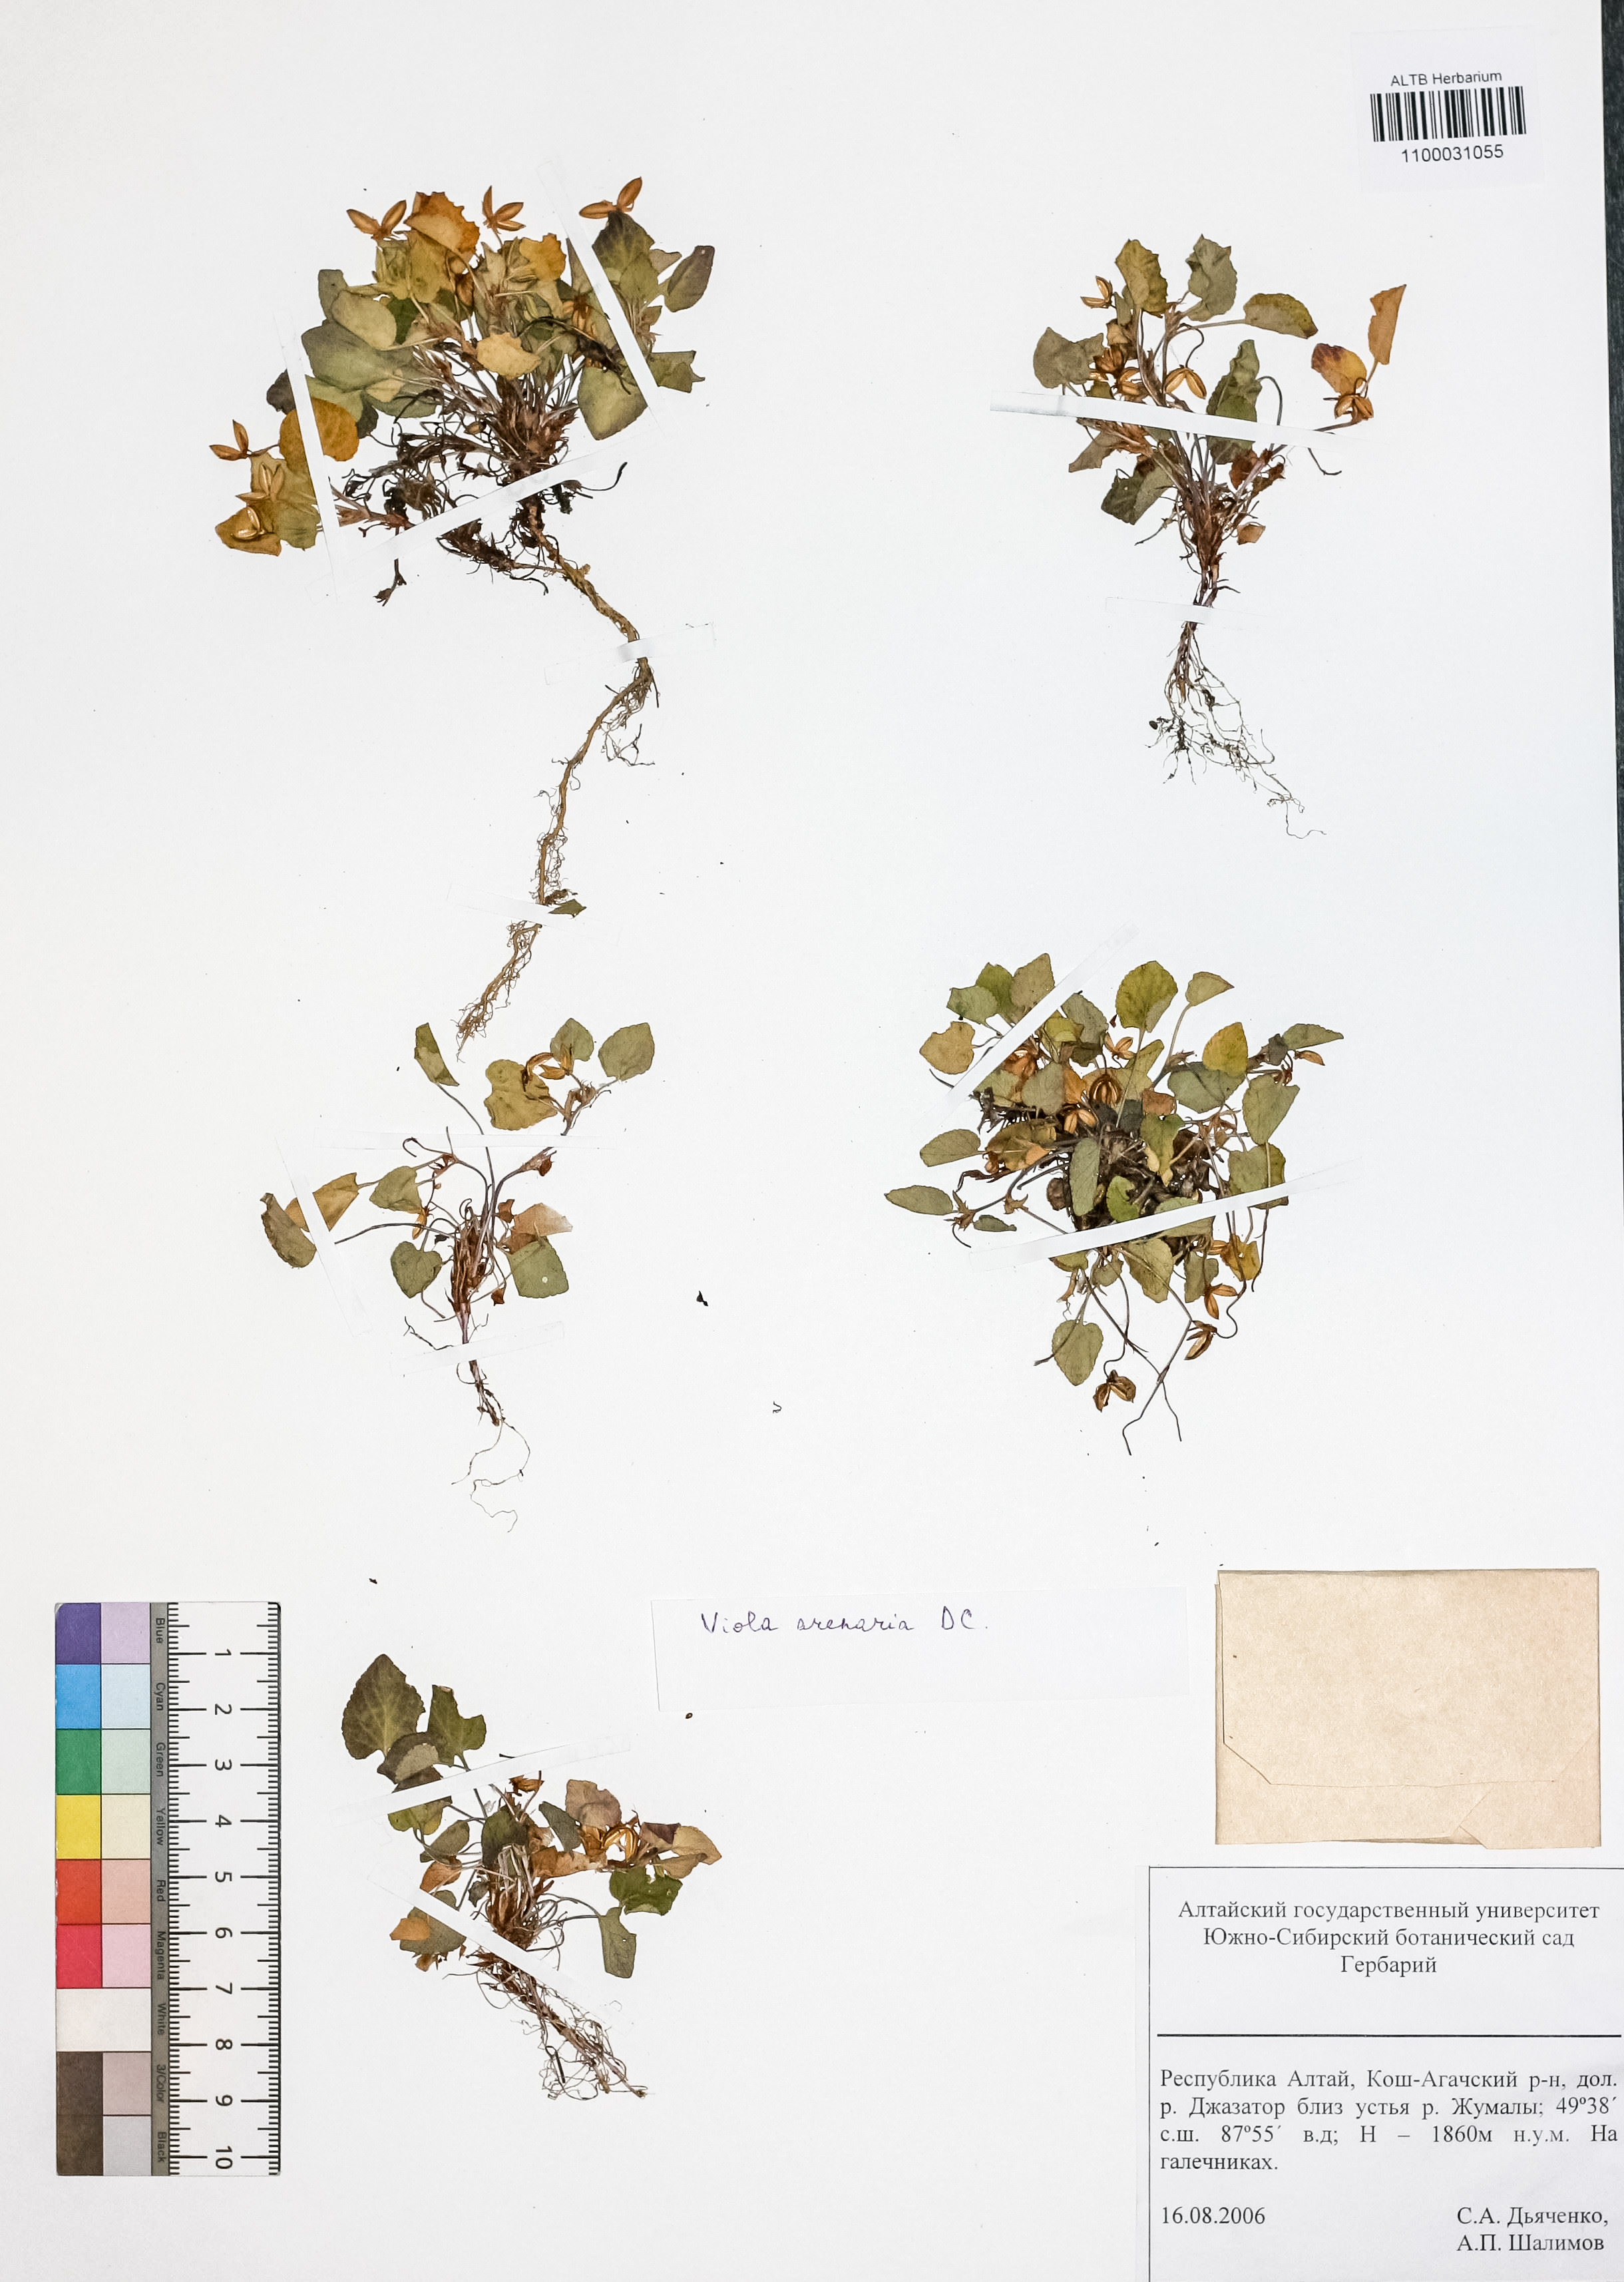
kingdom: Plantae
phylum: Tracheophyta
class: Magnoliopsida
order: Malpighiales
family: Violaceae
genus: Viola
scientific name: Viola rupestris
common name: Teesdale violet
